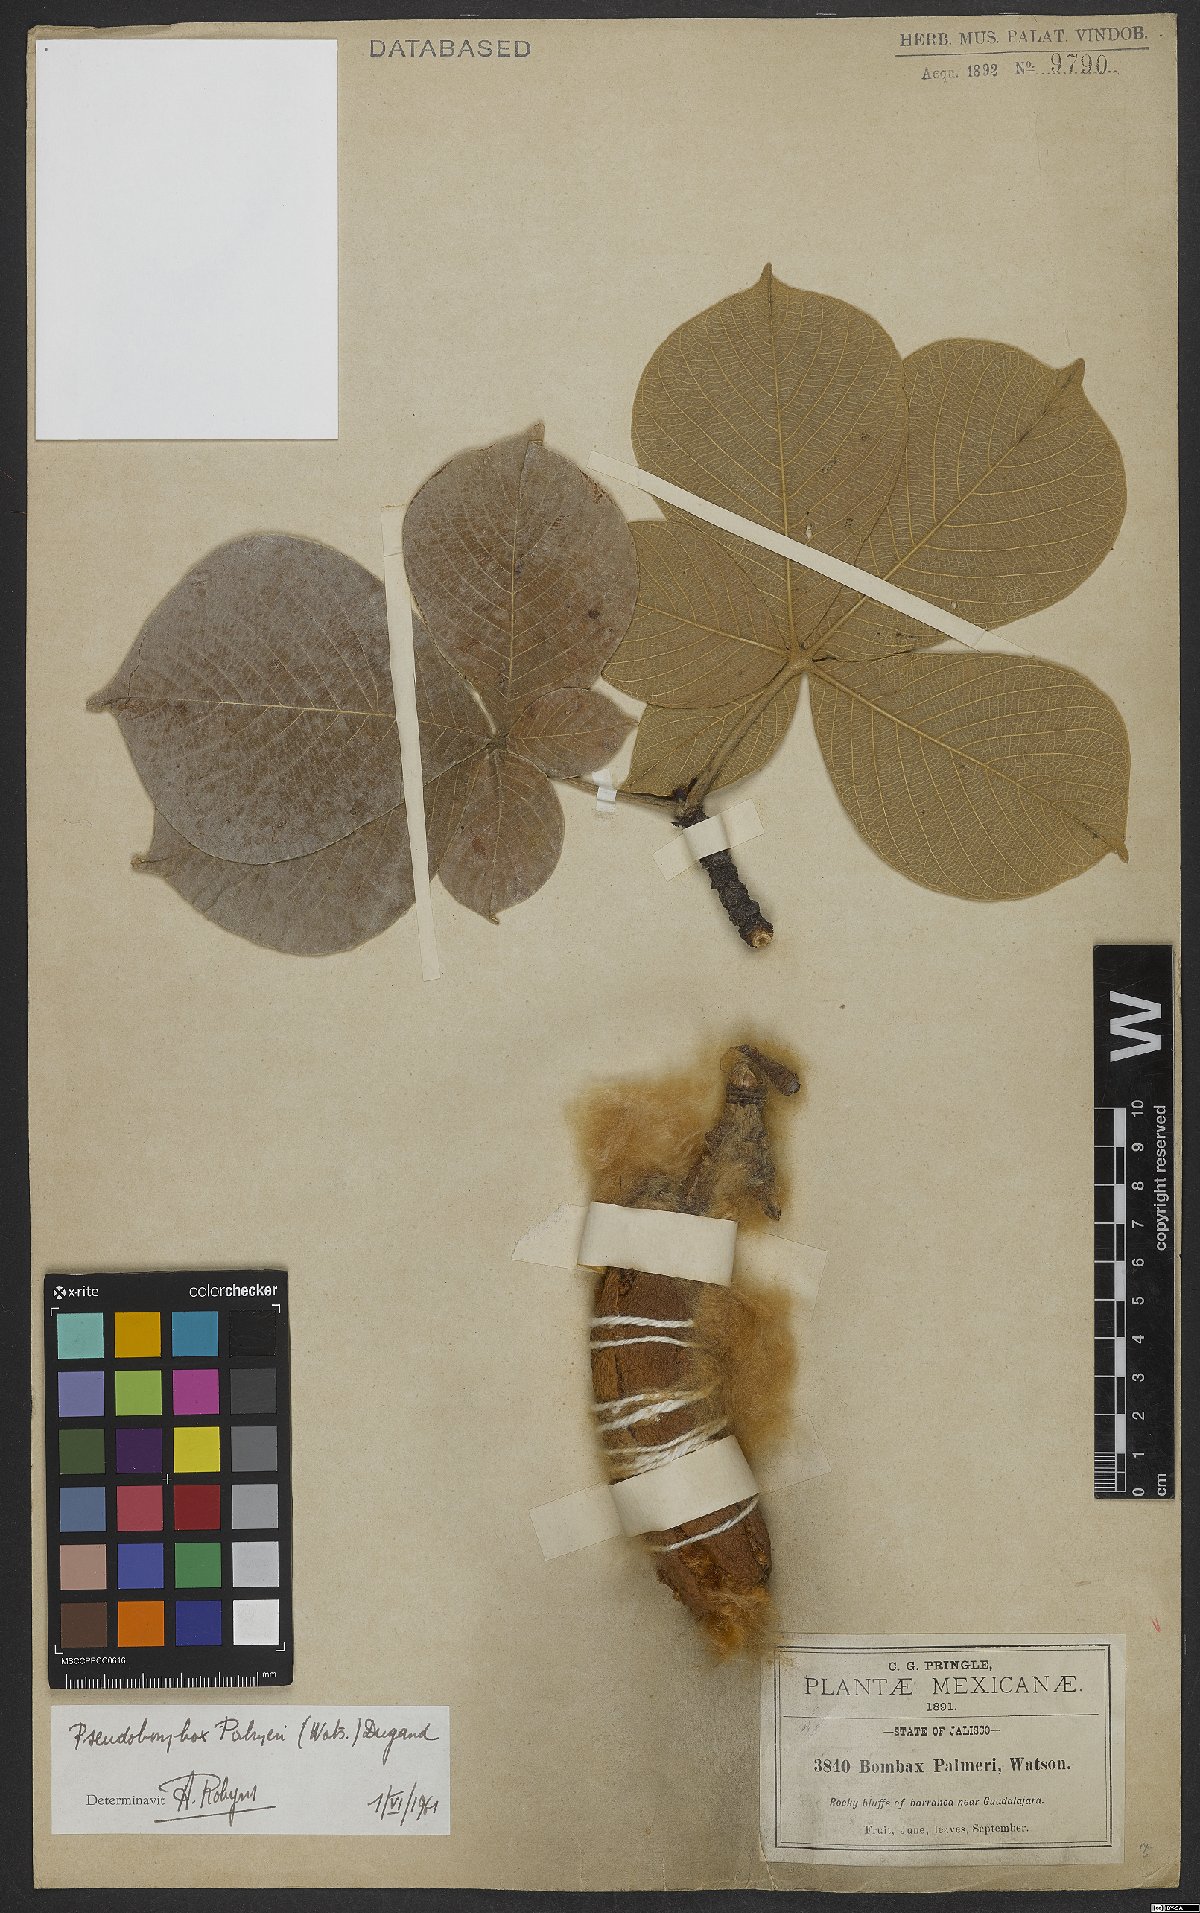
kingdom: Plantae
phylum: Tracheophyta
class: Magnoliopsida
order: Malvales
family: Malvaceae
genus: Pseudobombax
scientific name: Pseudobombax palmeri
